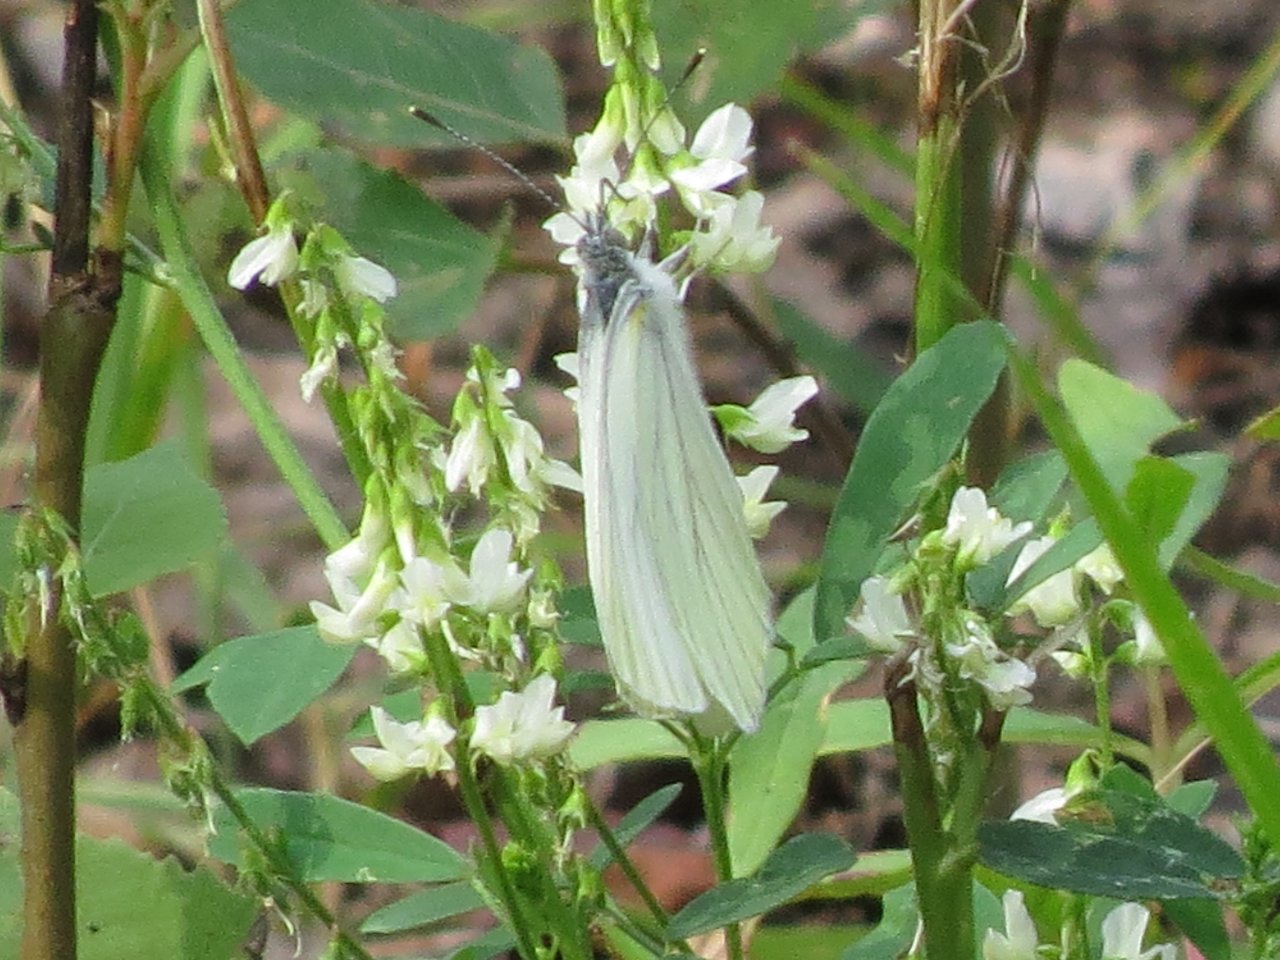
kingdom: Animalia
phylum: Arthropoda
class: Insecta
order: Lepidoptera
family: Pieridae
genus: Pieris
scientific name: Pieris oleracea
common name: Mustard White
